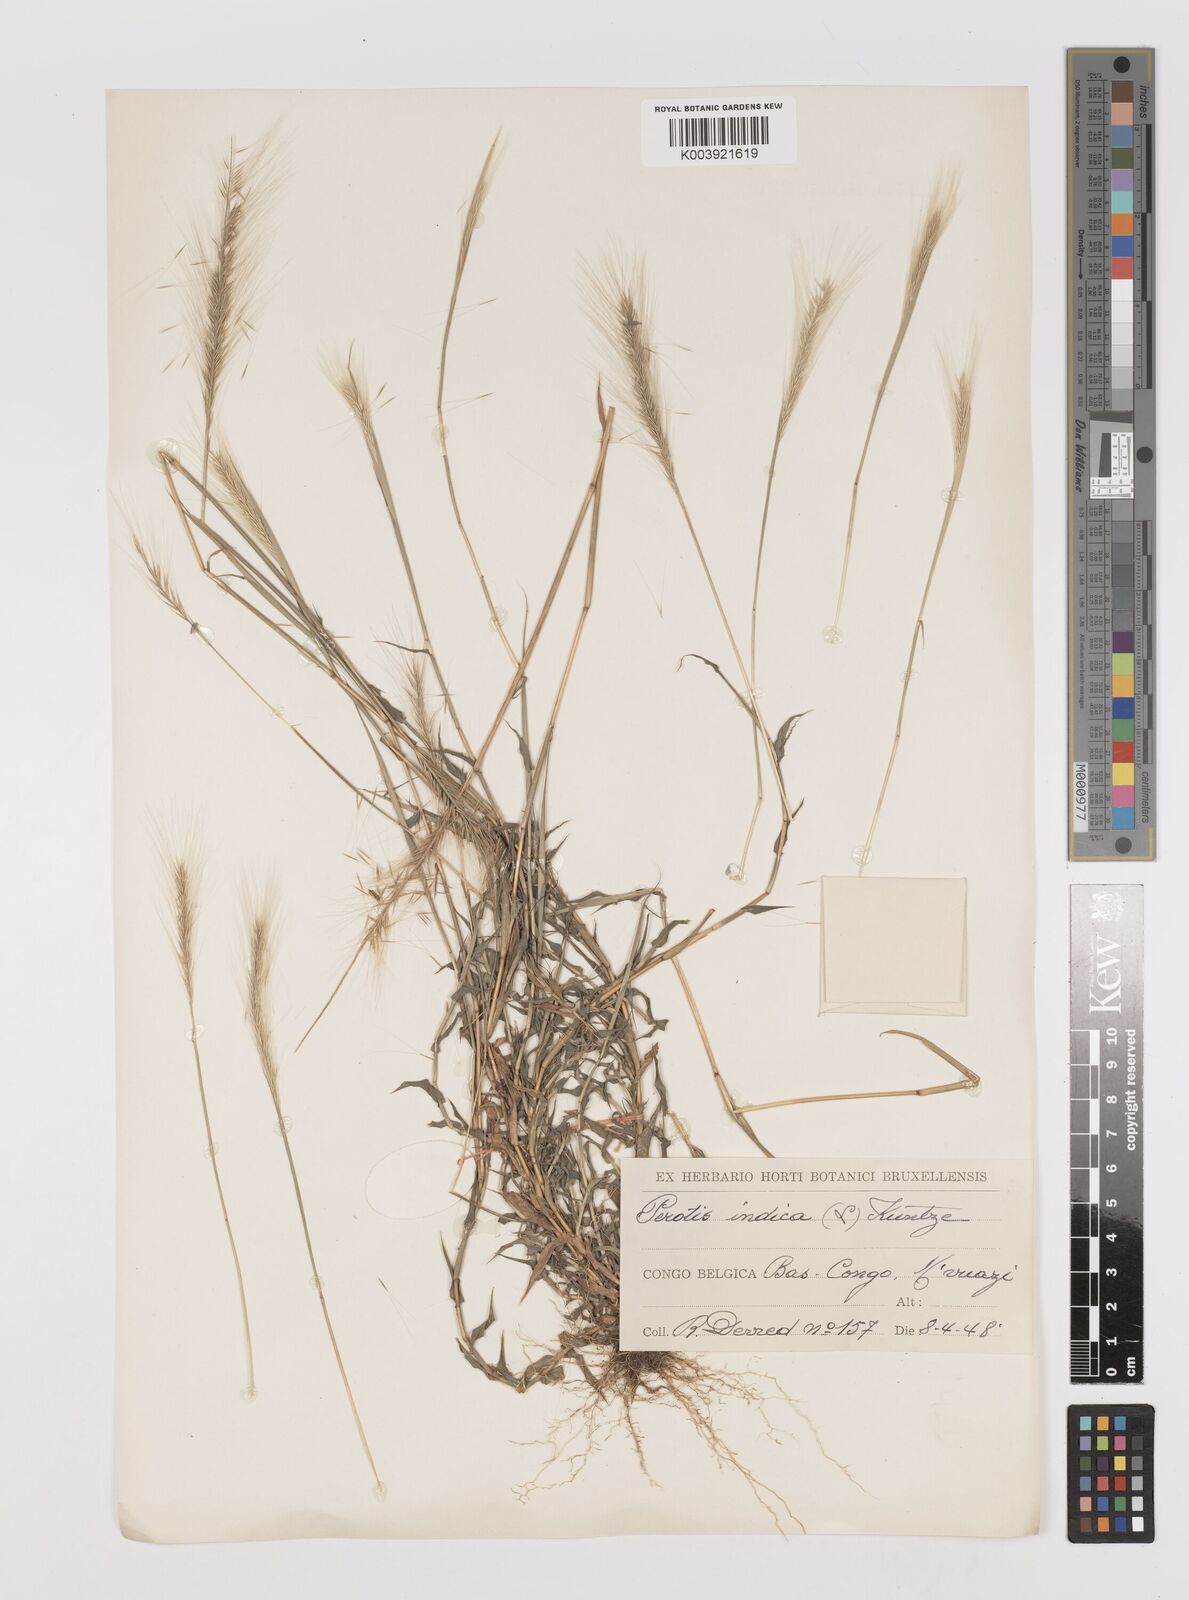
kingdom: Plantae
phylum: Tracheophyta
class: Liliopsida
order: Poales
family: Poaceae
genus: Perotis
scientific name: Perotis vaginata
